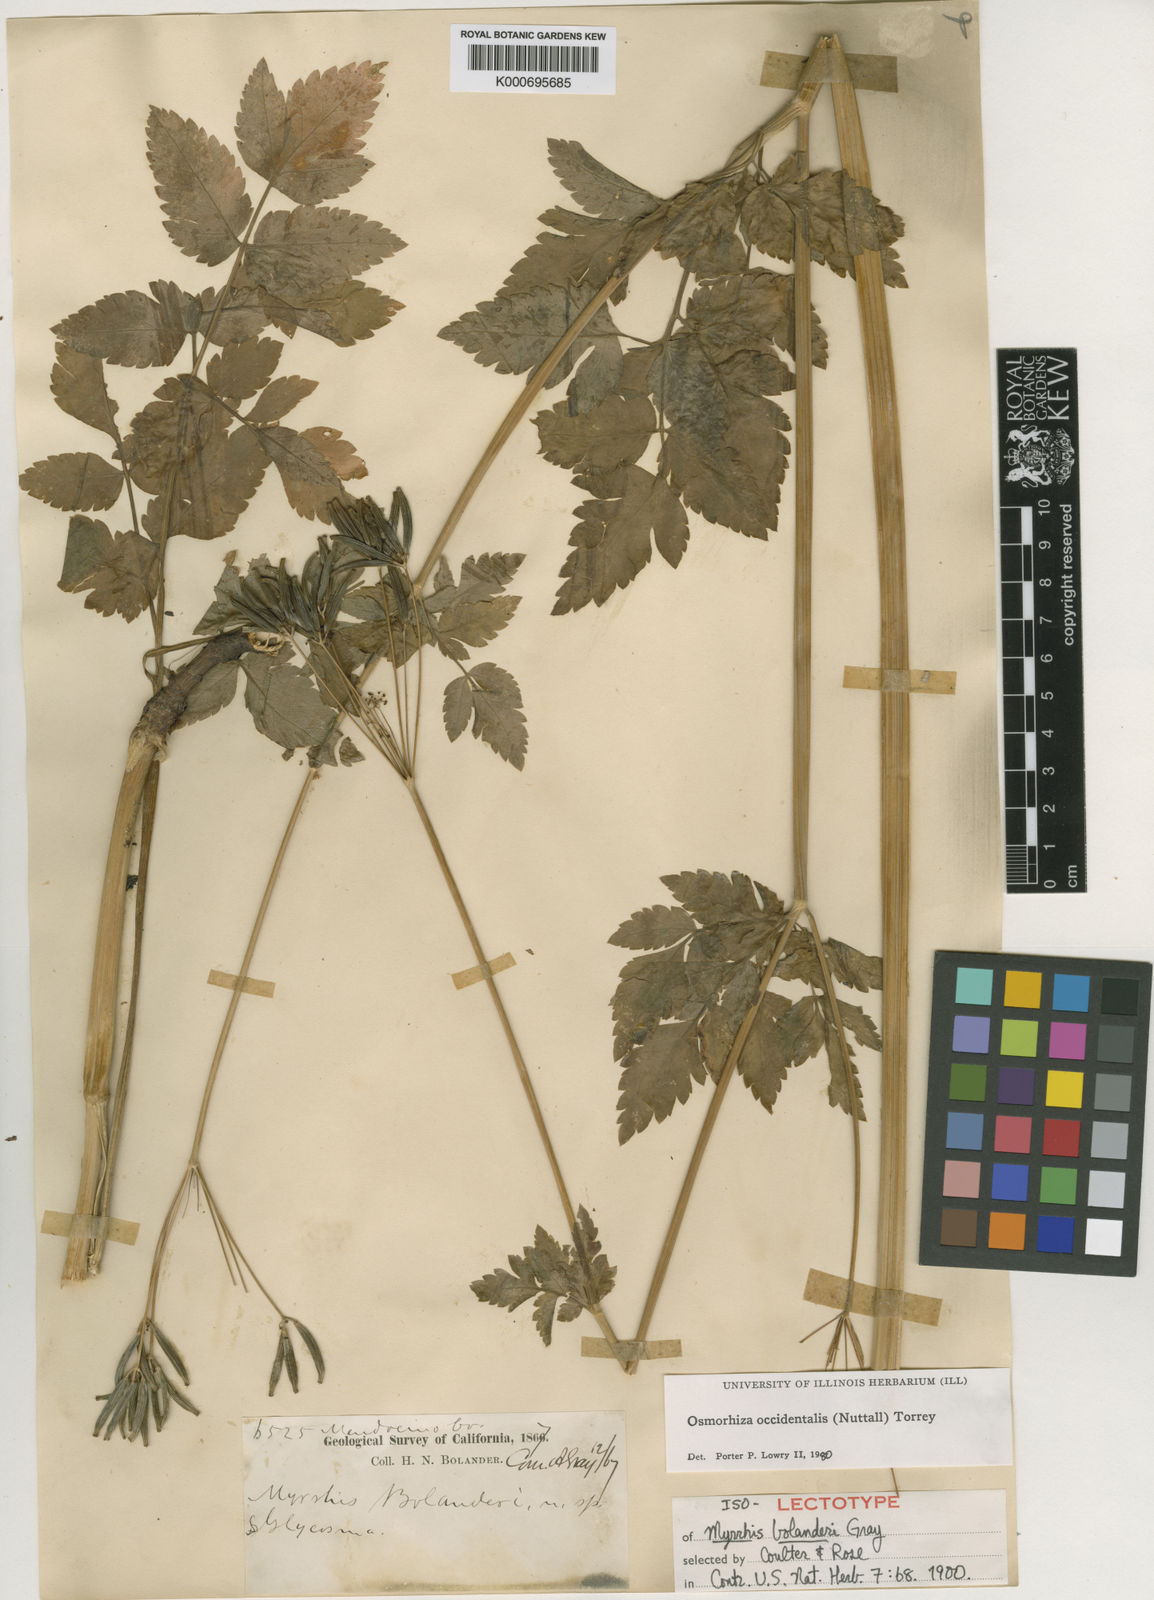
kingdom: Plantae
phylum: Tracheophyta
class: Magnoliopsida
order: Apiales
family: Apiaceae
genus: Osmorhiza
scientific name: Osmorhiza occidentalis
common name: Western sweet cicely
